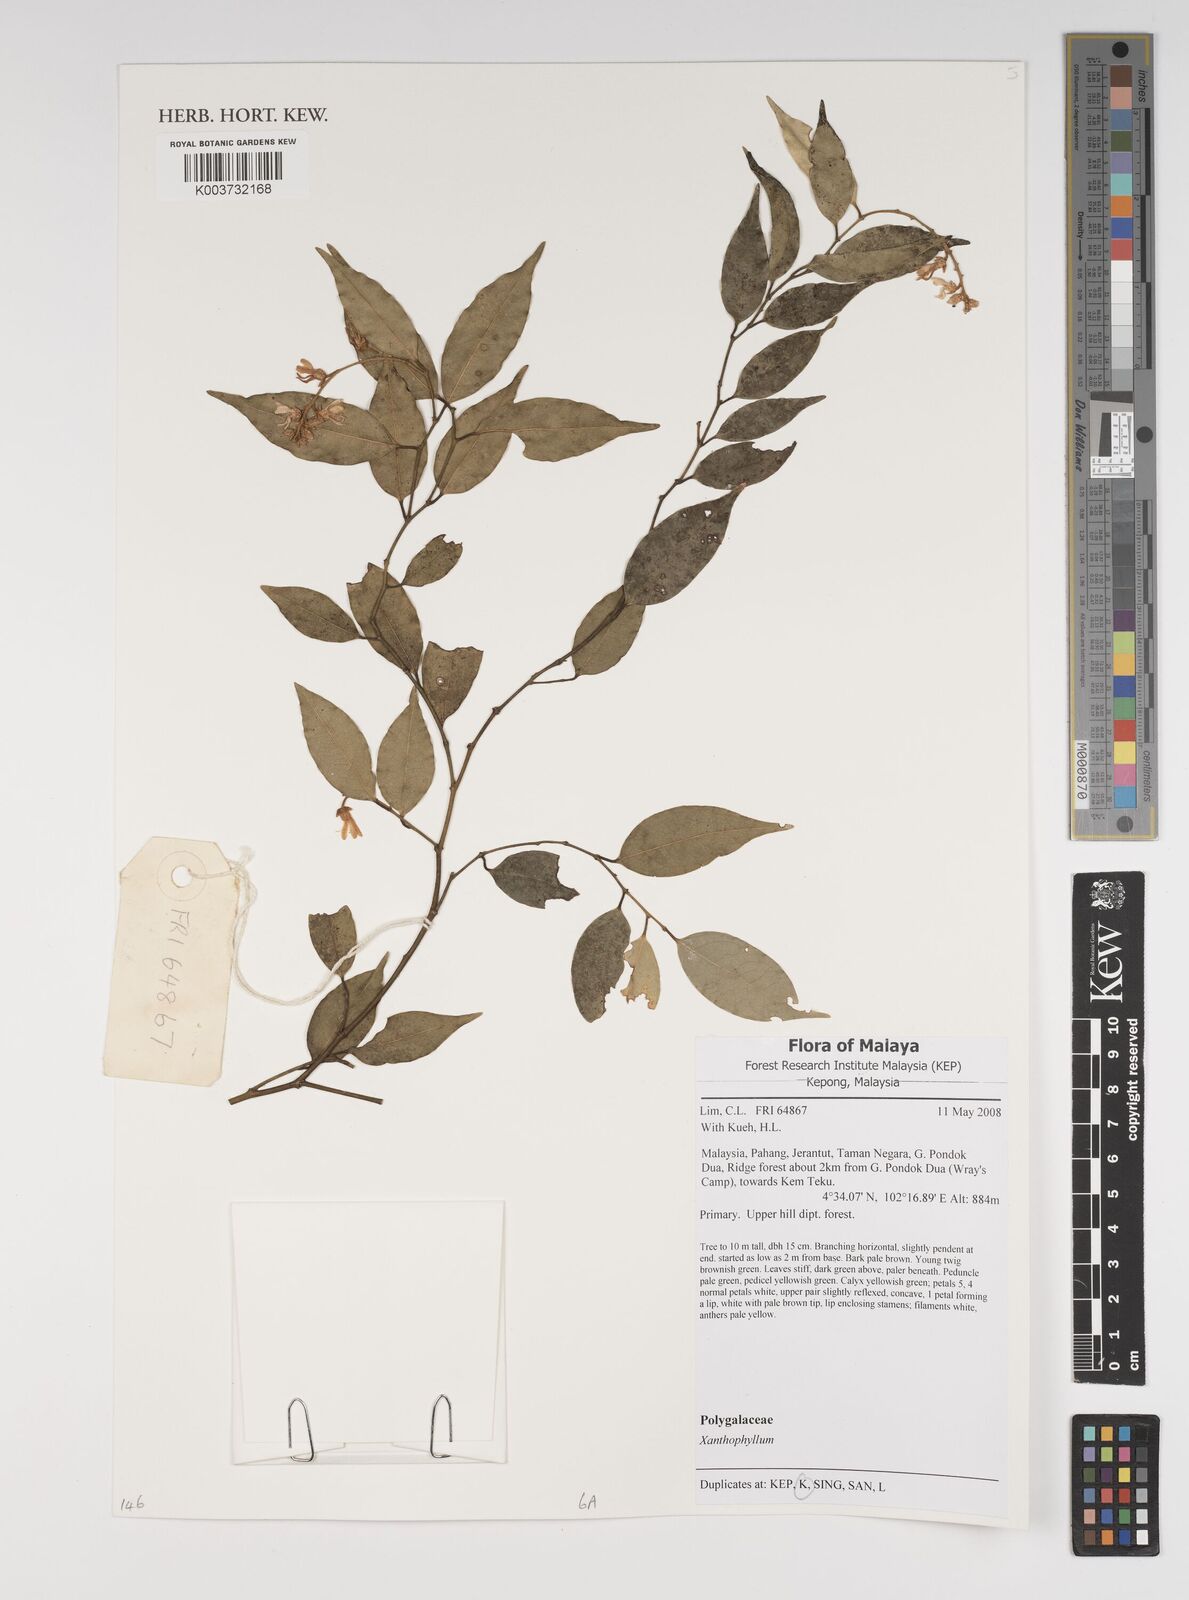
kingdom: Plantae
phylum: Tracheophyta
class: Magnoliopsida
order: Fabales
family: Polygalaceae
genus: Xanthophyllum
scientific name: Xanthophyllum
